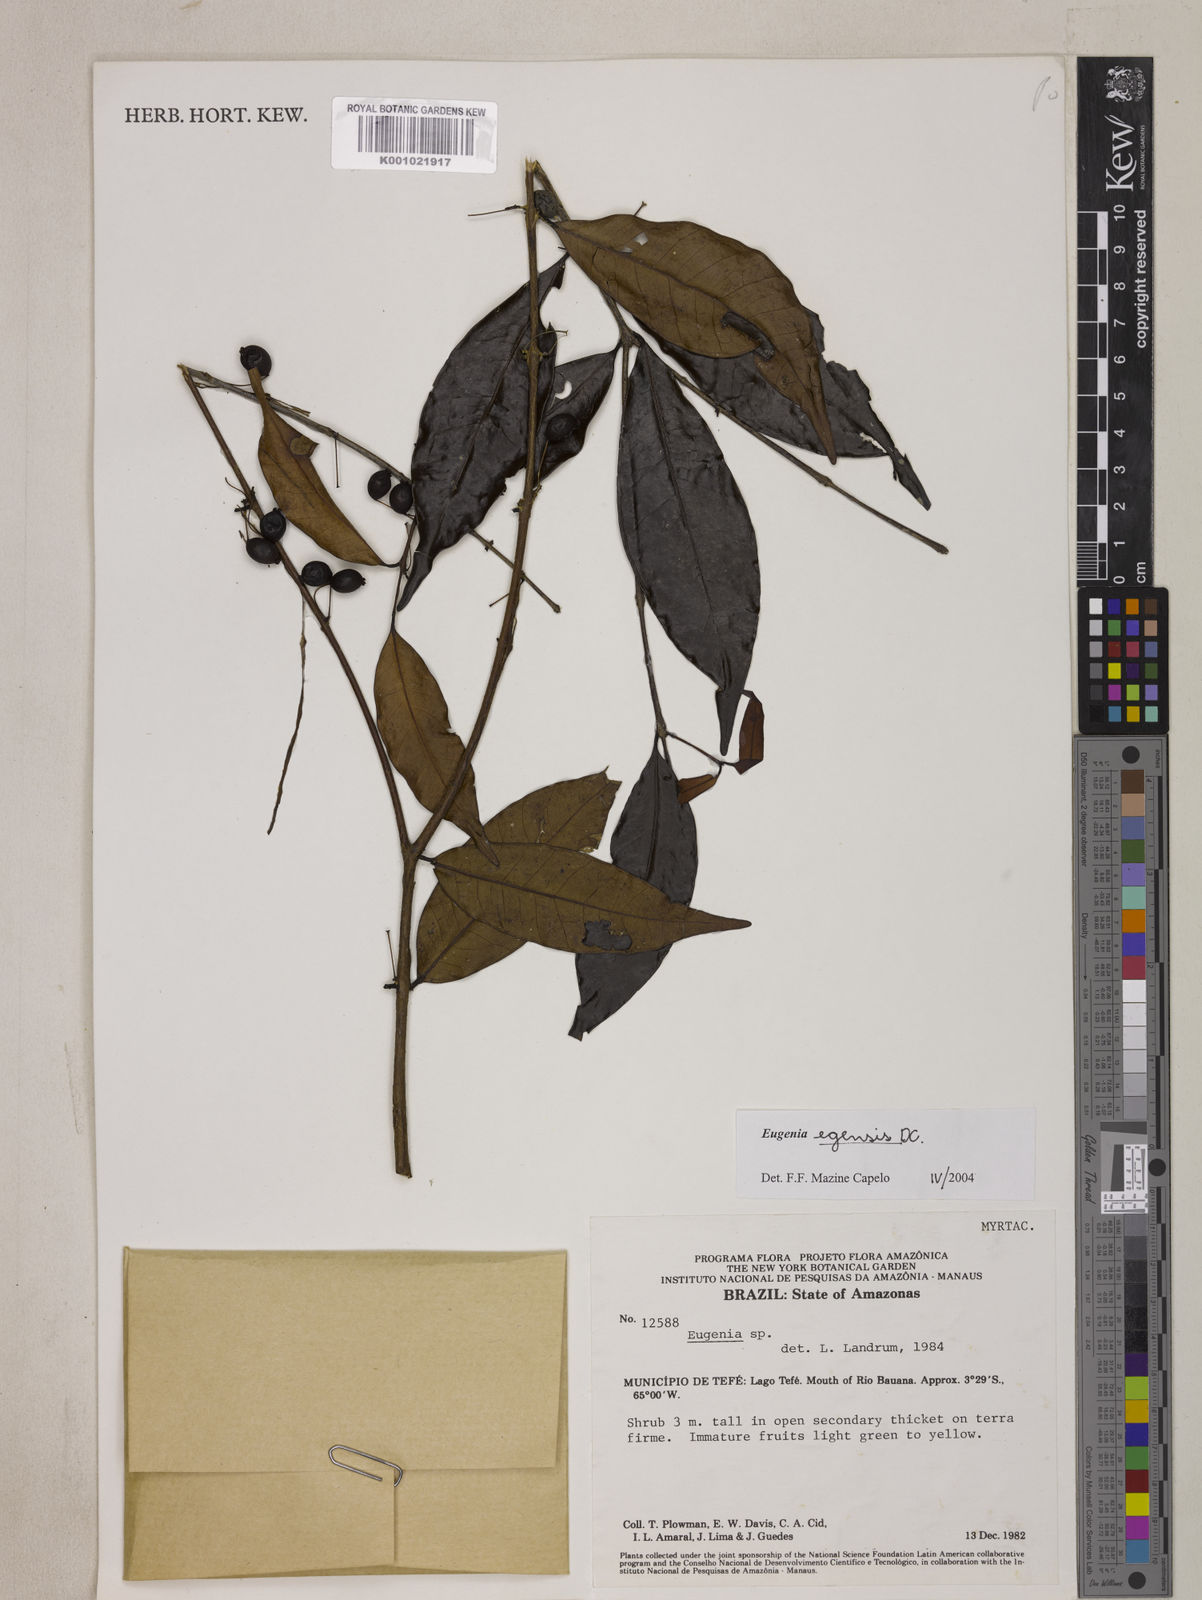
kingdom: Plantae
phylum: Tracheophyta
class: Magnoliopsida
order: Myrtales
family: Myrtaceae
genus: Eugenia
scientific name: Eugenia egensis
